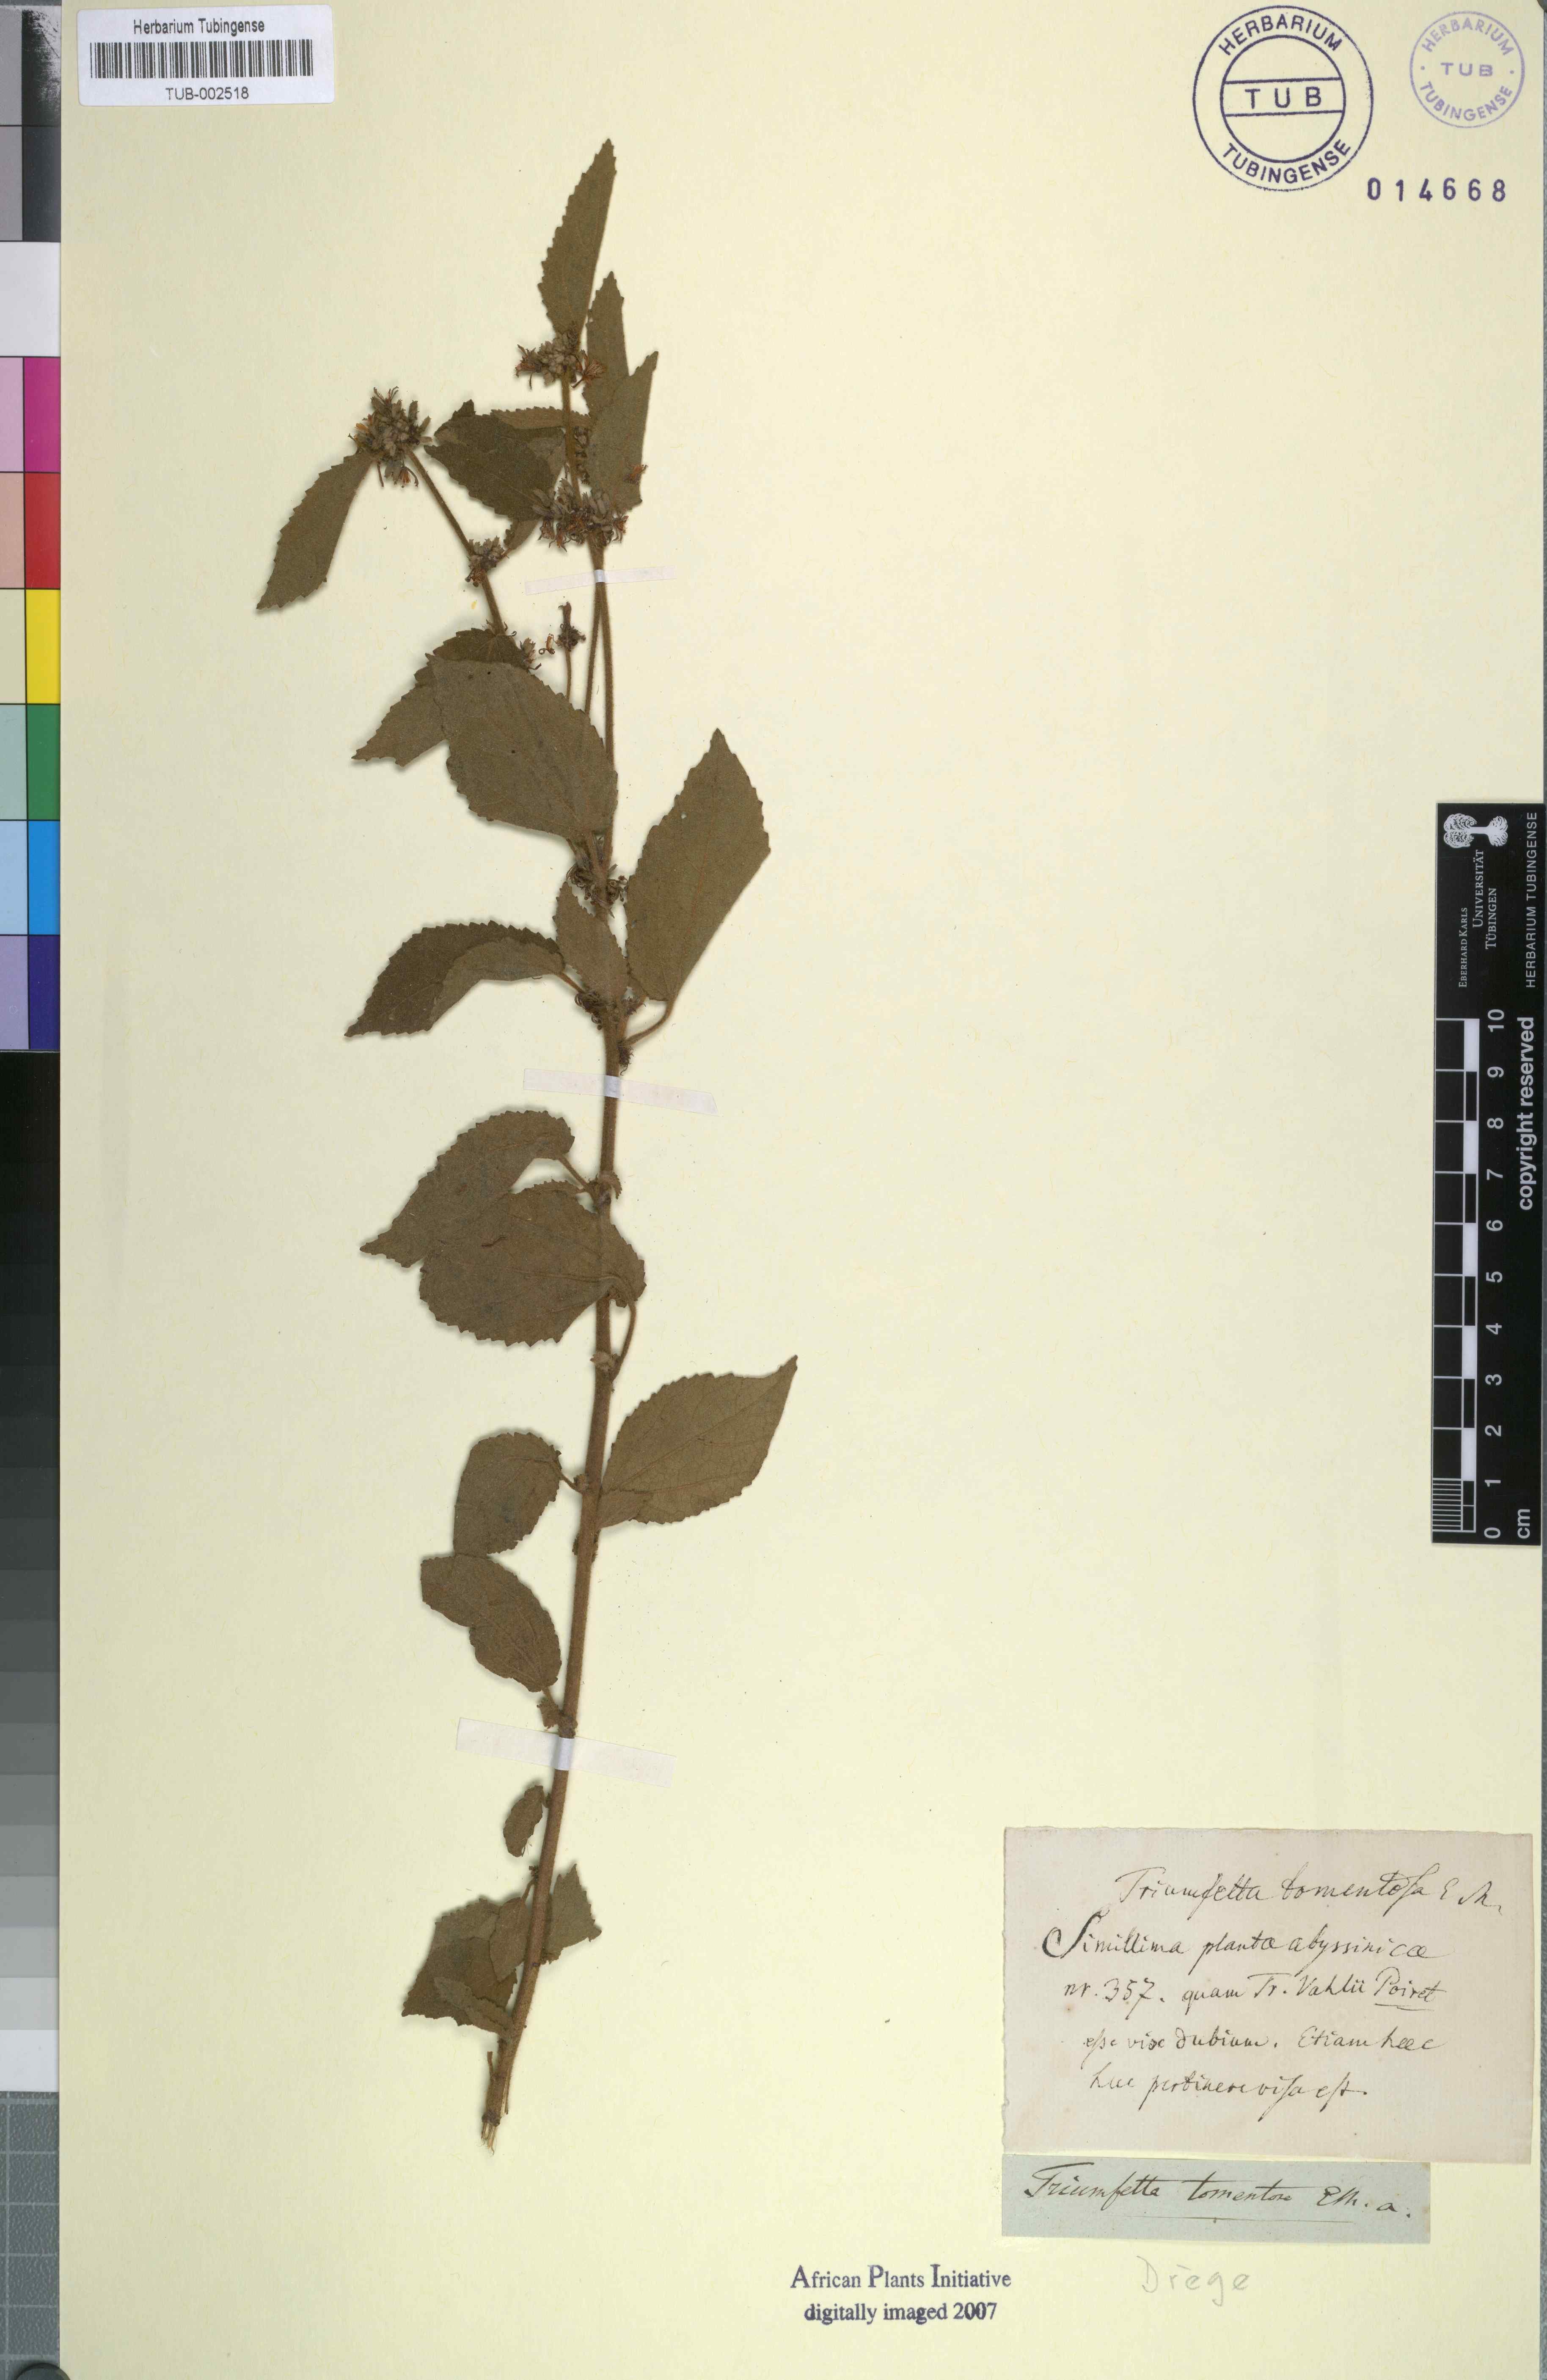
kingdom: Plantae
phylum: Tracheophyta
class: Magnoliopsida
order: Malvales
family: Malvaceae
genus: Triumfetta
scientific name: Triumfetta tomentosa
